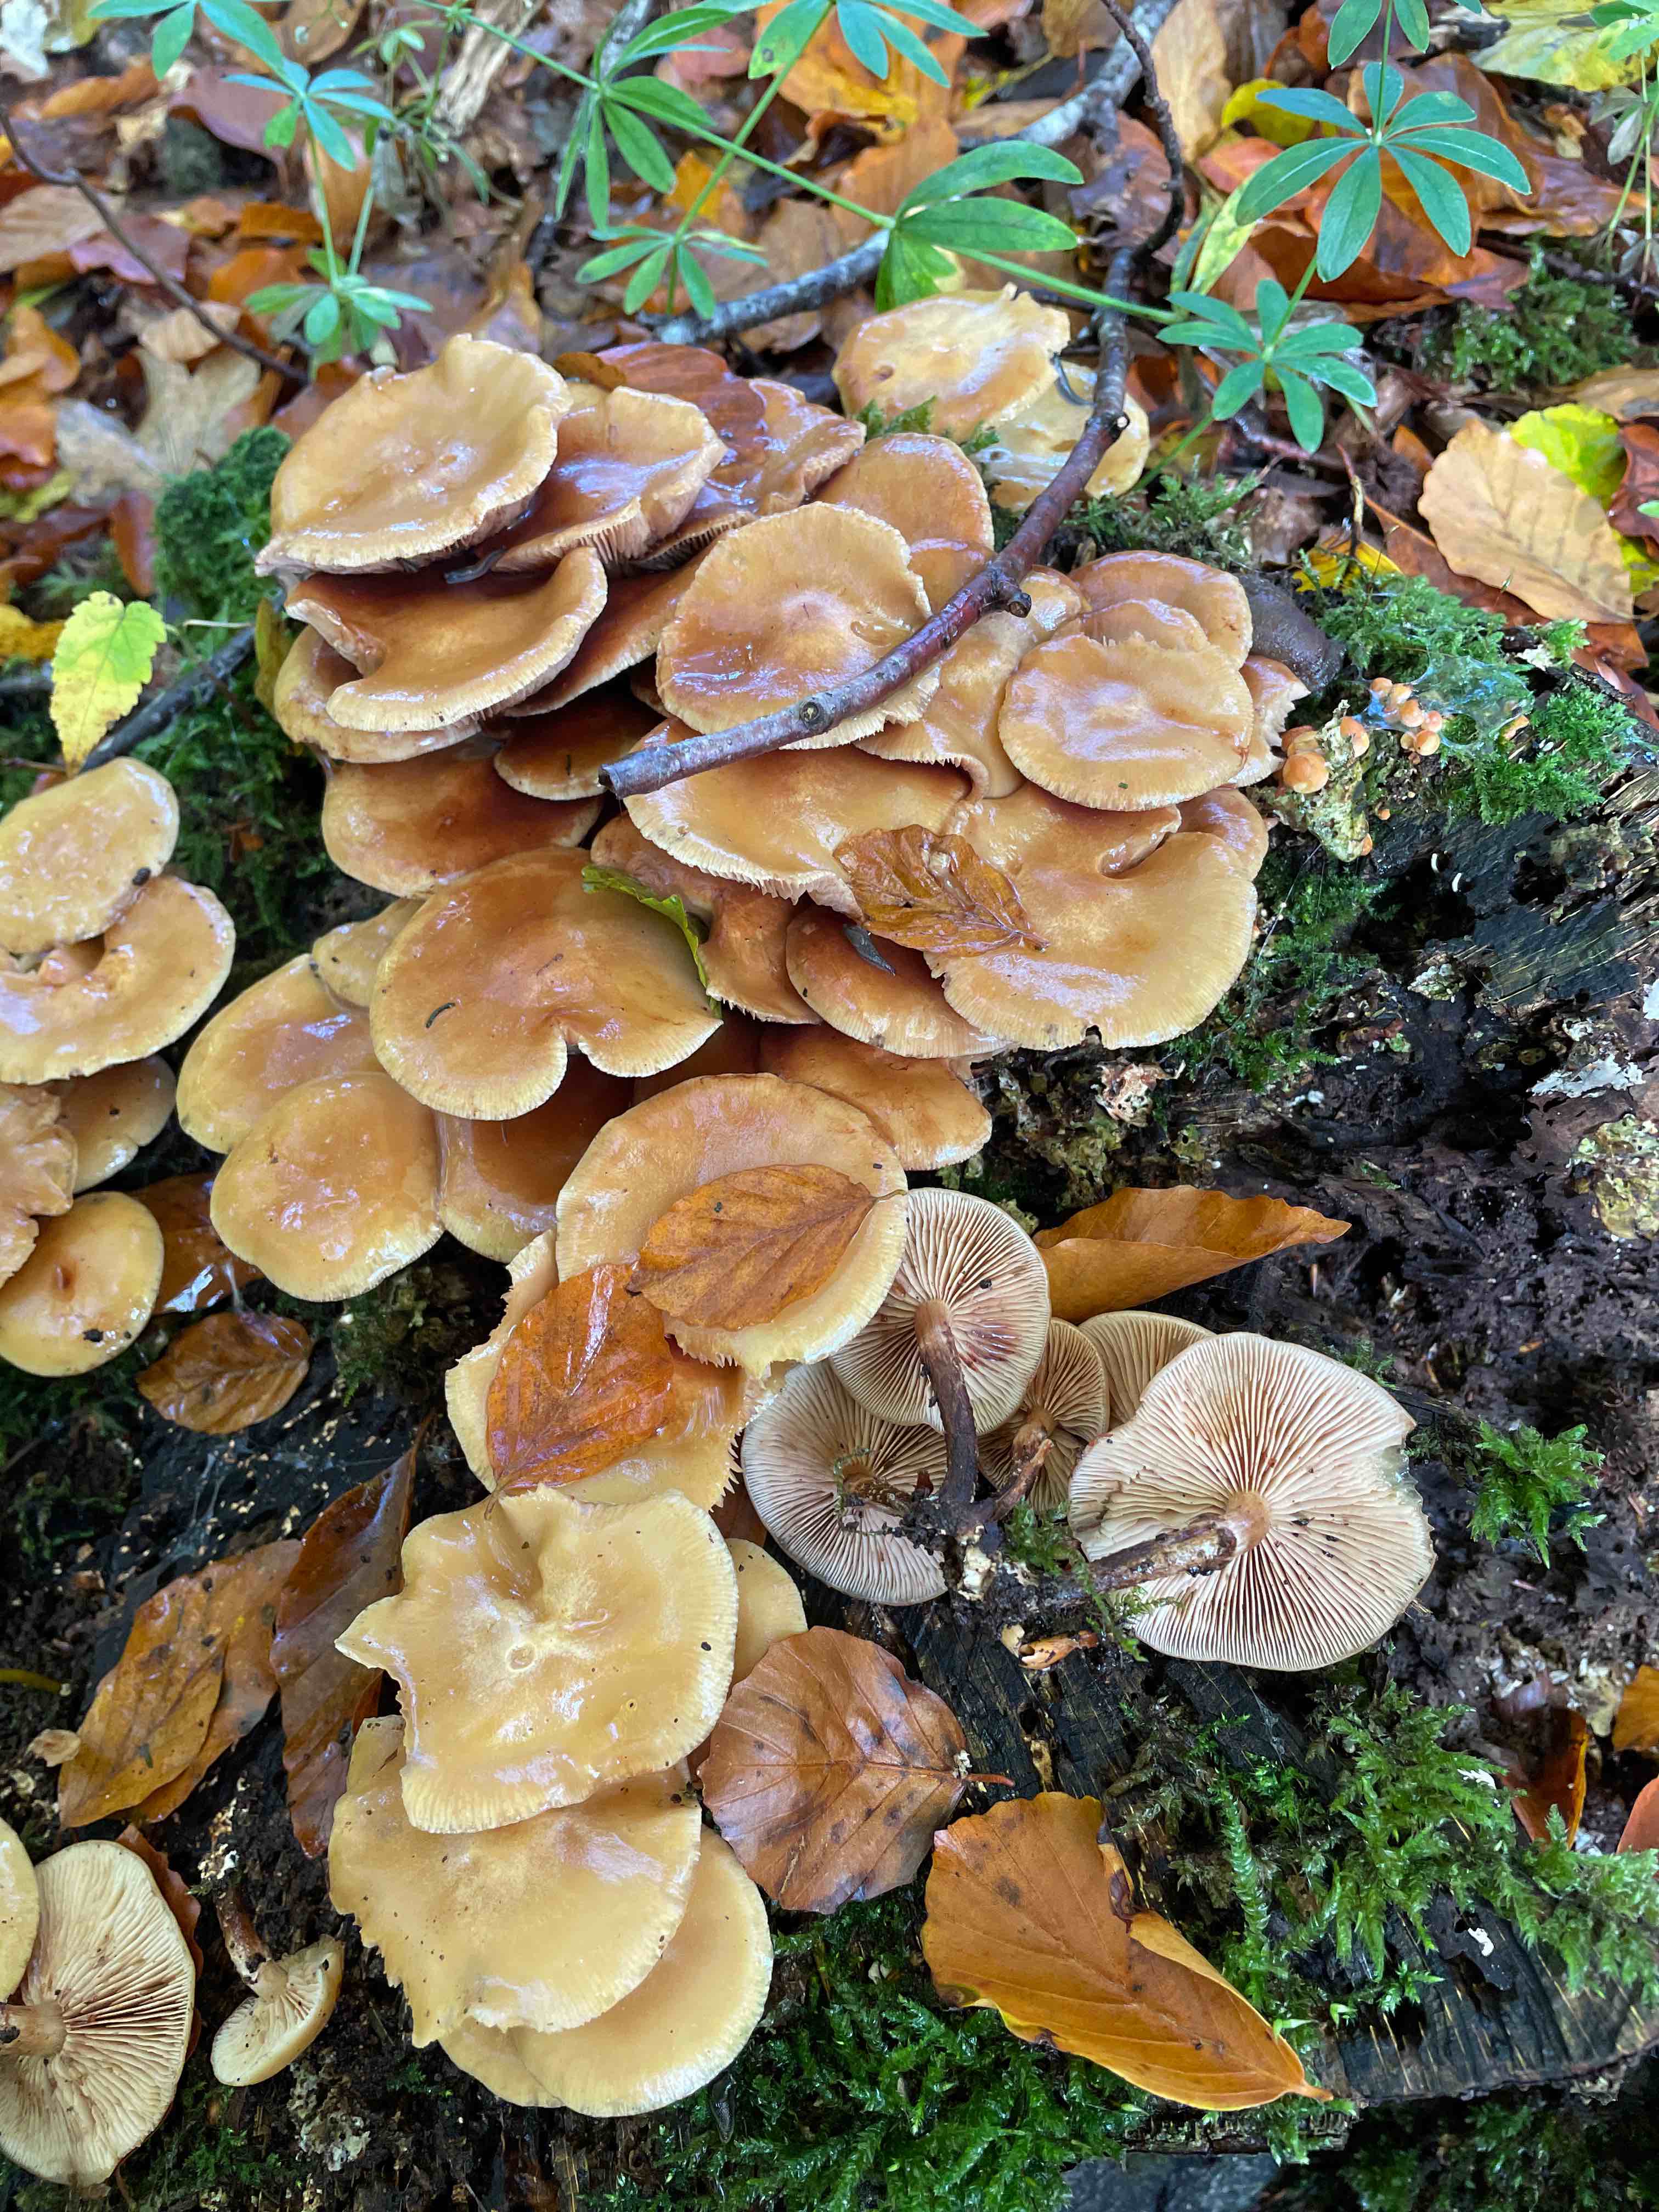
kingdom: Fungi
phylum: Basidiomycota
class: Agaricomycetes
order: Agaricales
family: Strophariaceae
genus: Kuehneromyces
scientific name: Kuehneromyces mutabilis
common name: foranderlig skælhat
